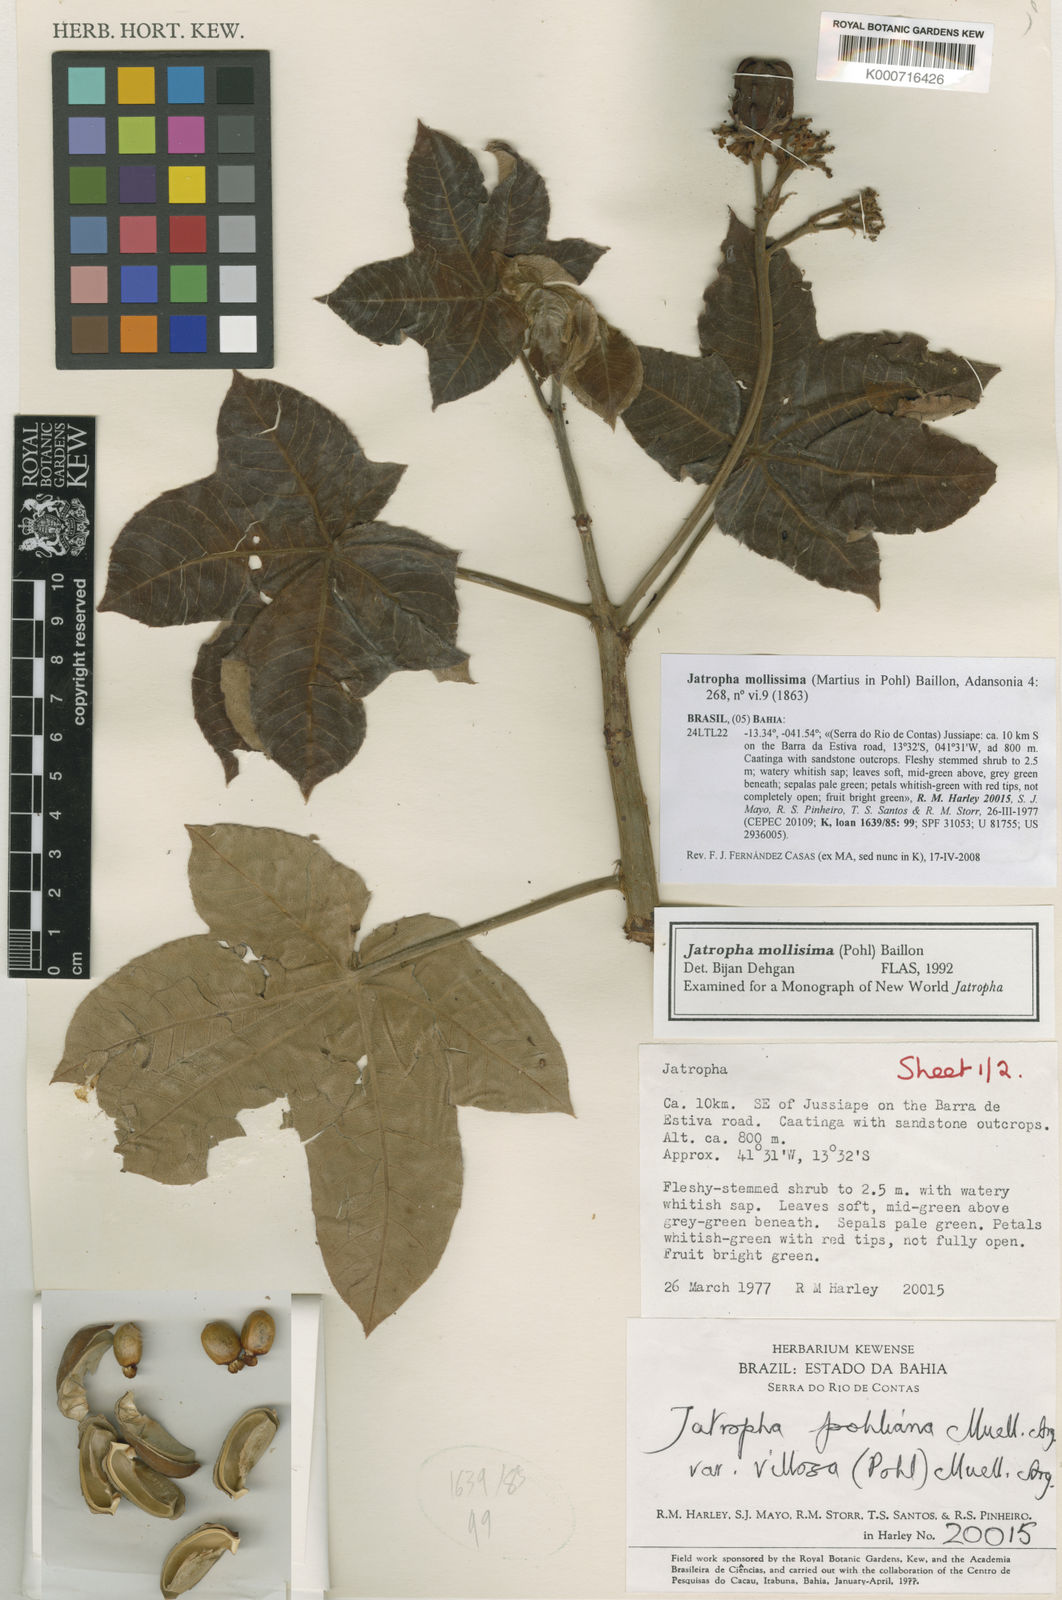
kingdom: Plantae
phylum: Tracheophyta
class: Magnoliopsida
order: Malpighiales
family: Euphorbiaceae
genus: Jatropha
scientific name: Jatropha mollissima
